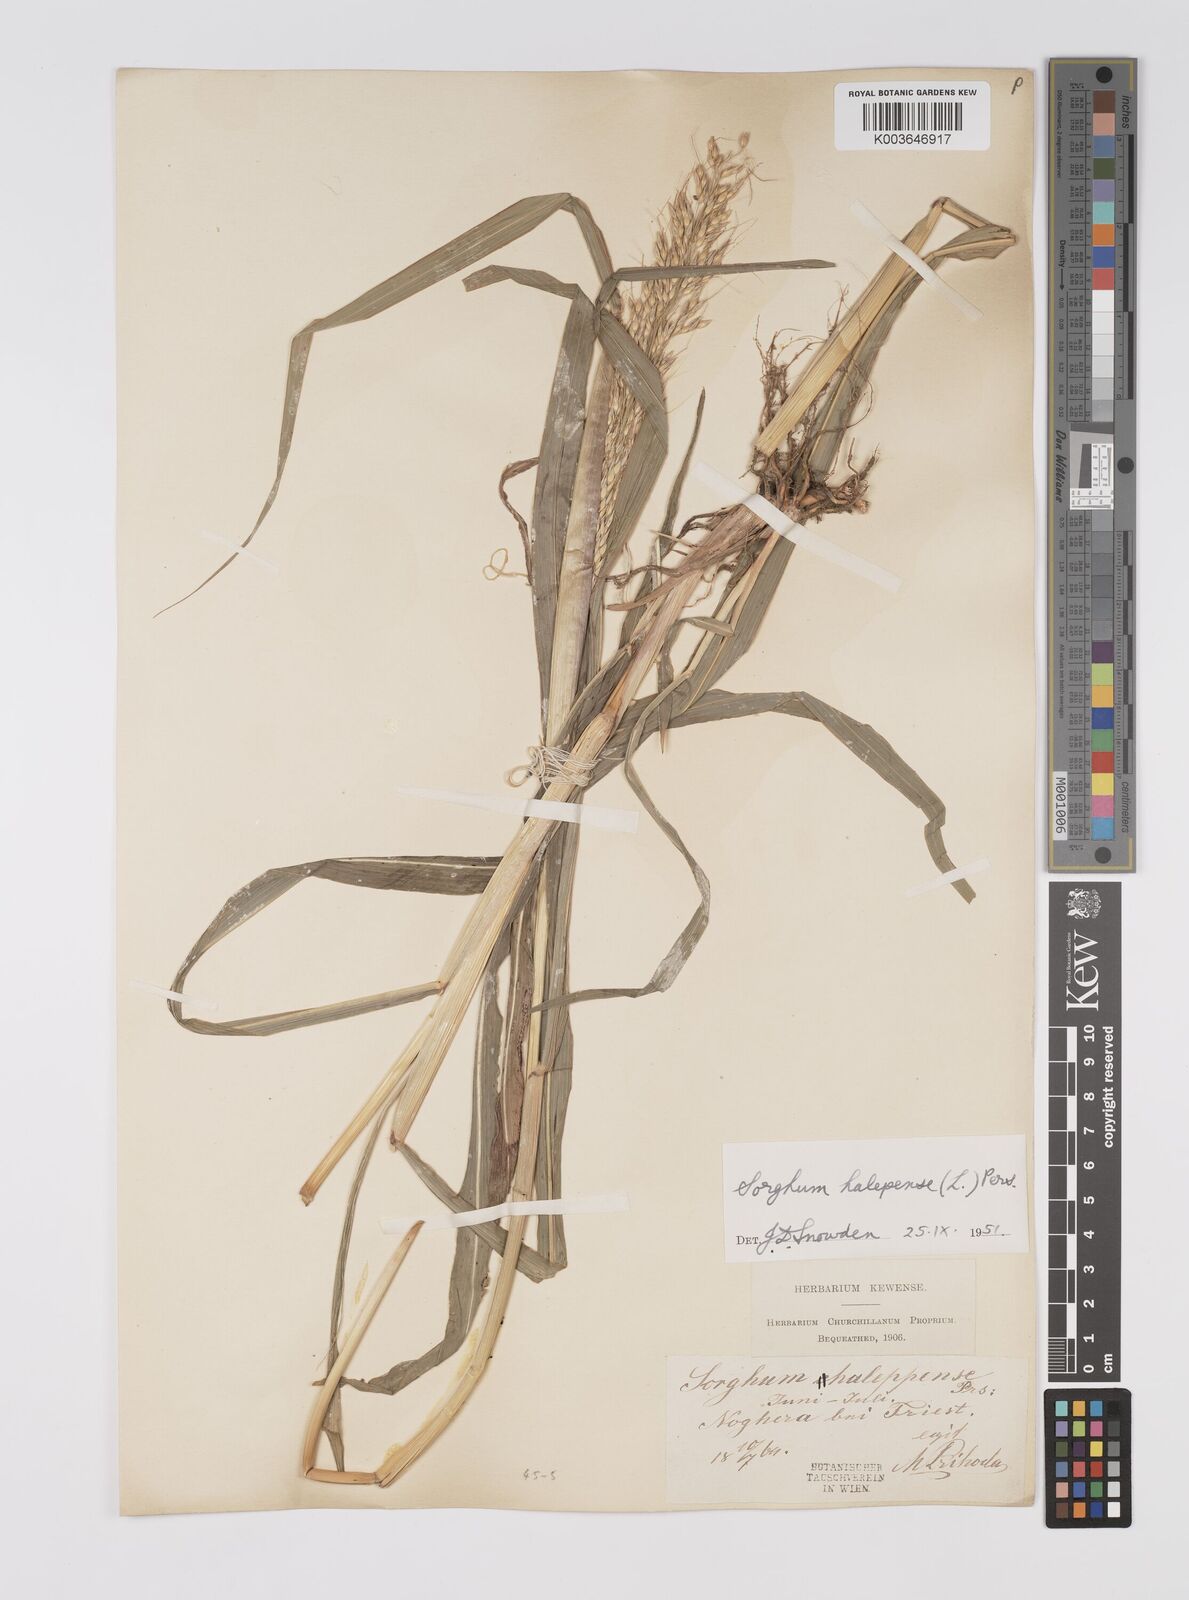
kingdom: Plantae
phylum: Tracheophyta
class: Liliopsida
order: Poales
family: Poaceae
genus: Sorghum
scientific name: Sorghum halepense
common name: Johnson-grass
